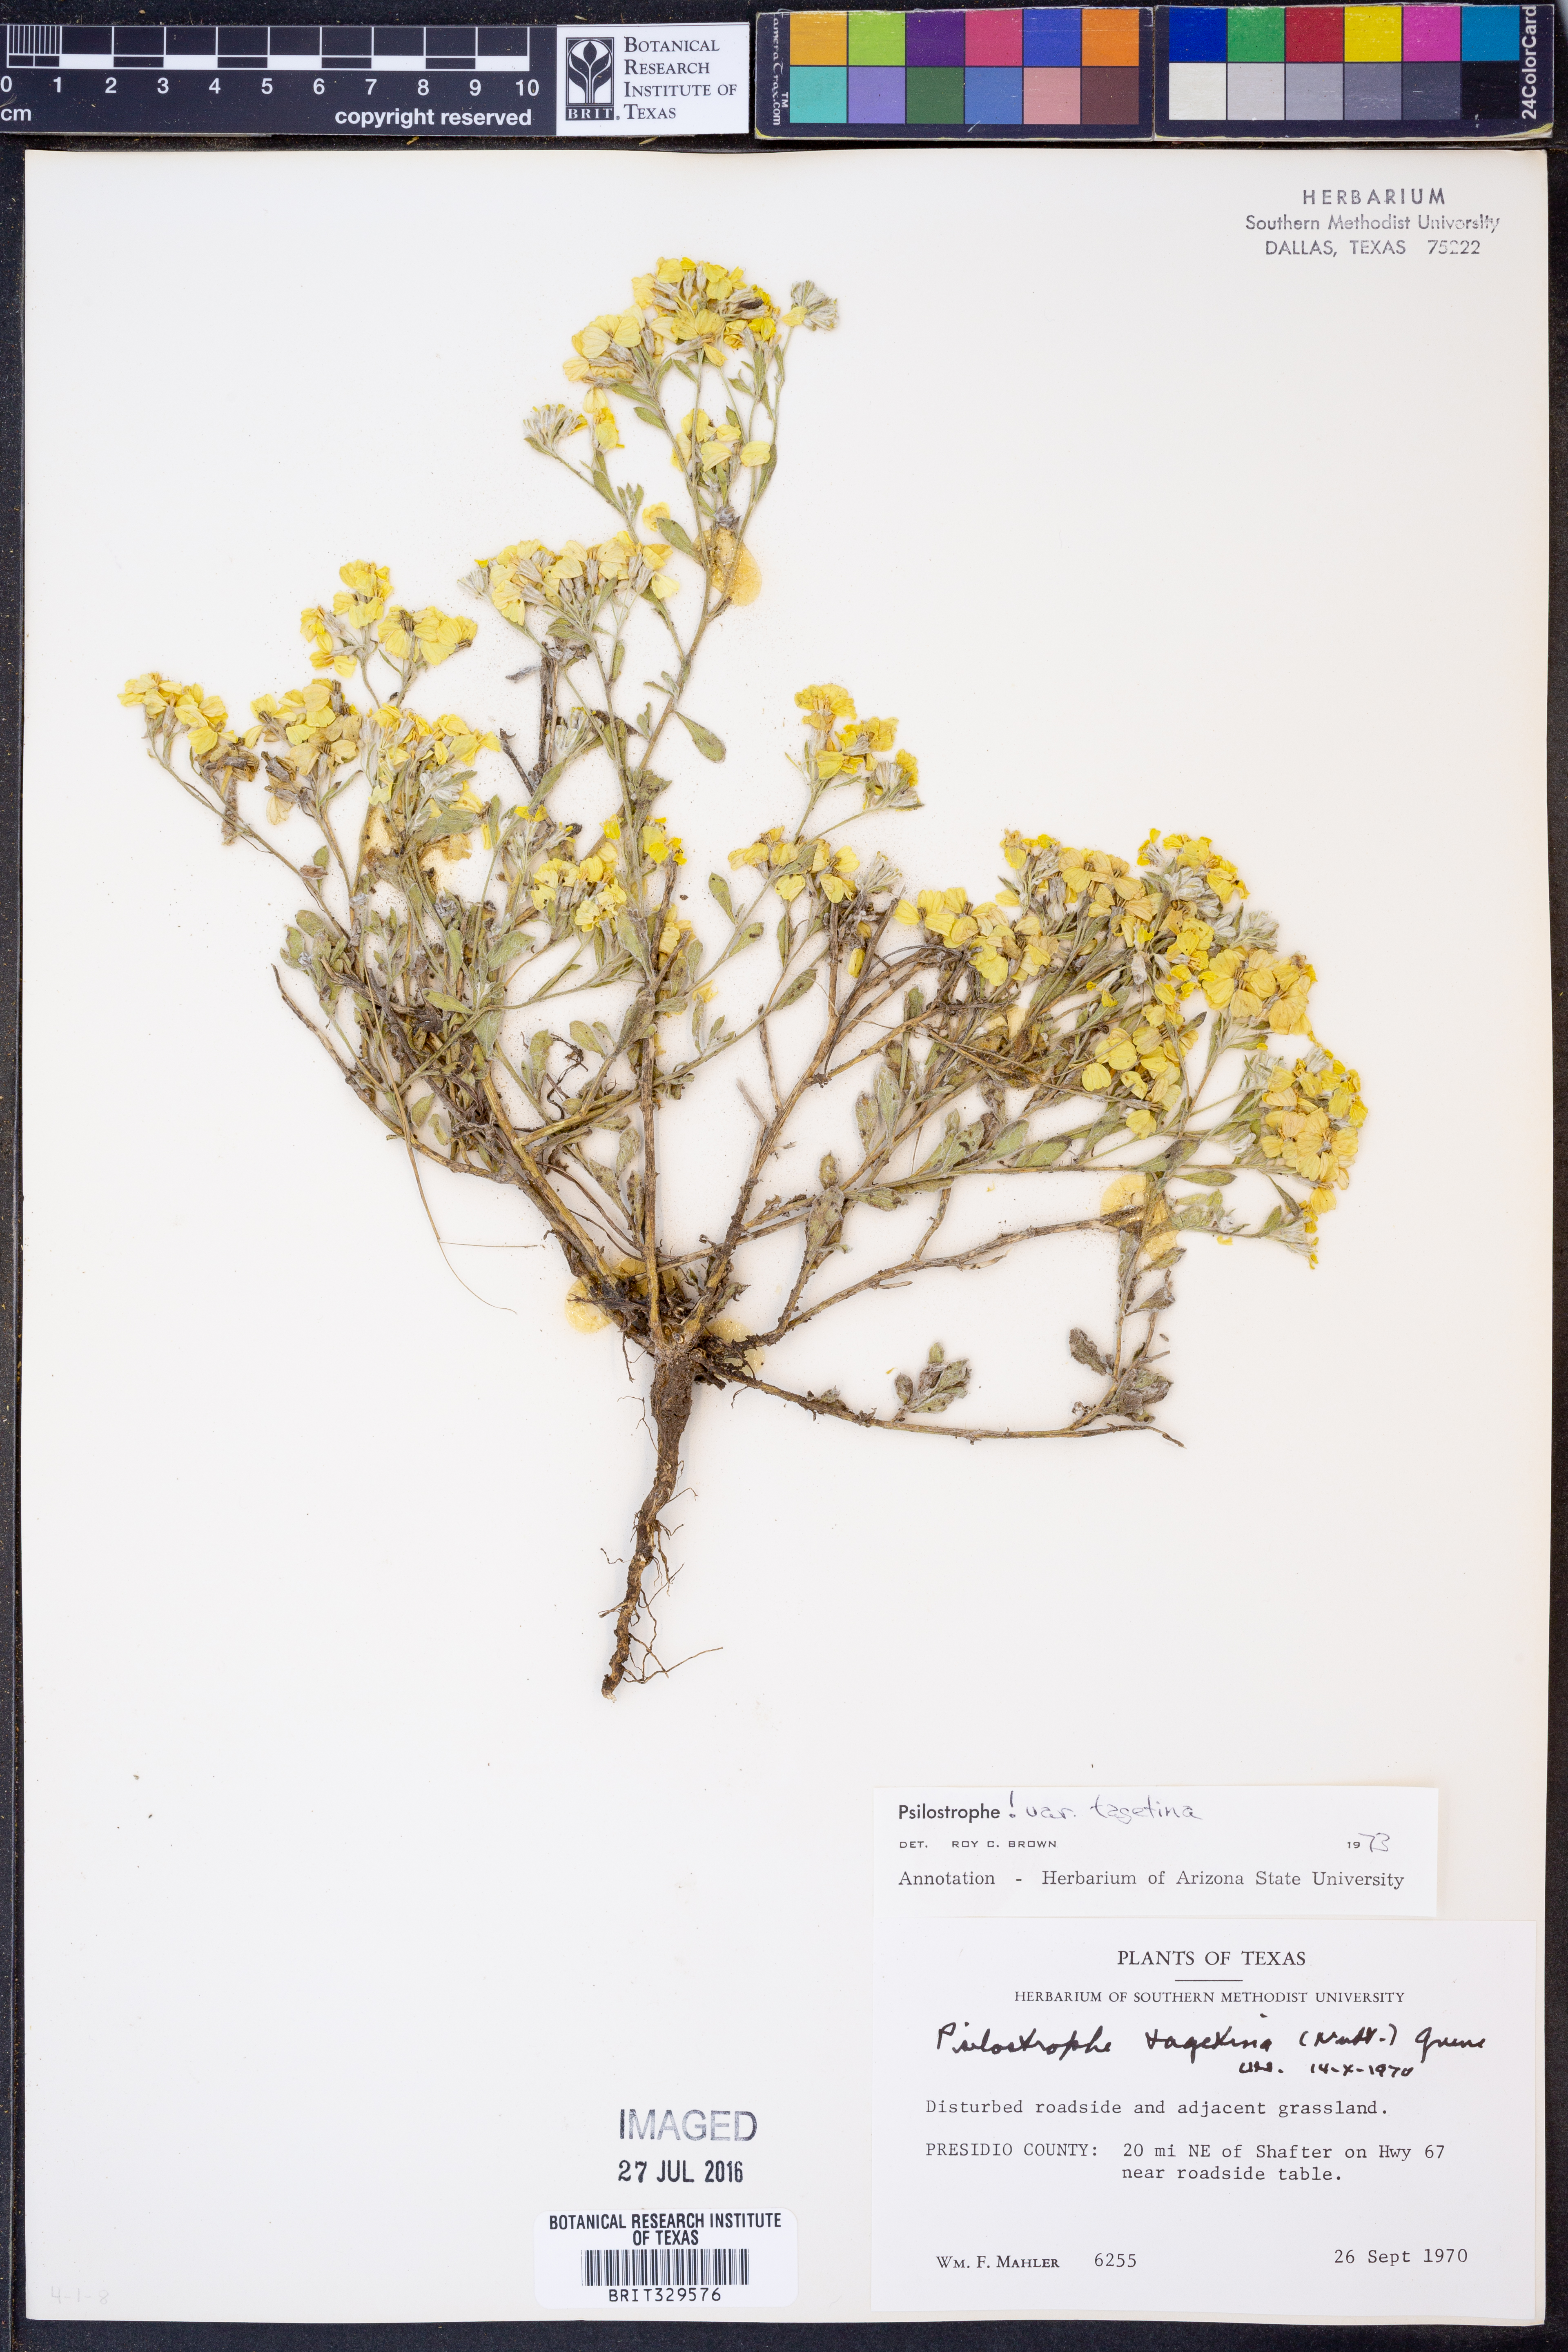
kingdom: Plantae
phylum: Tracheophyta
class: Magnoliopsida
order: Asterales
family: Asteraceae
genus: Psilostrophe
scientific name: Psilostrophe tagetina
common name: Marigold paper-flower
